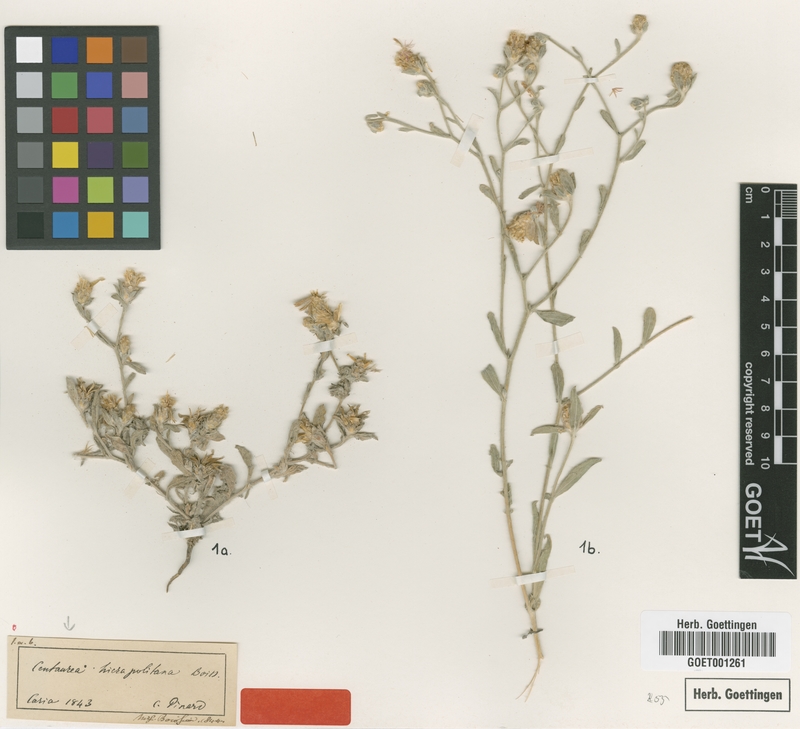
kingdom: Plantae
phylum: Tracheophyta
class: Magnoliopsida
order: Asterales
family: Asteraceae
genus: Centaurea
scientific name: Centaurea hierapolitana
